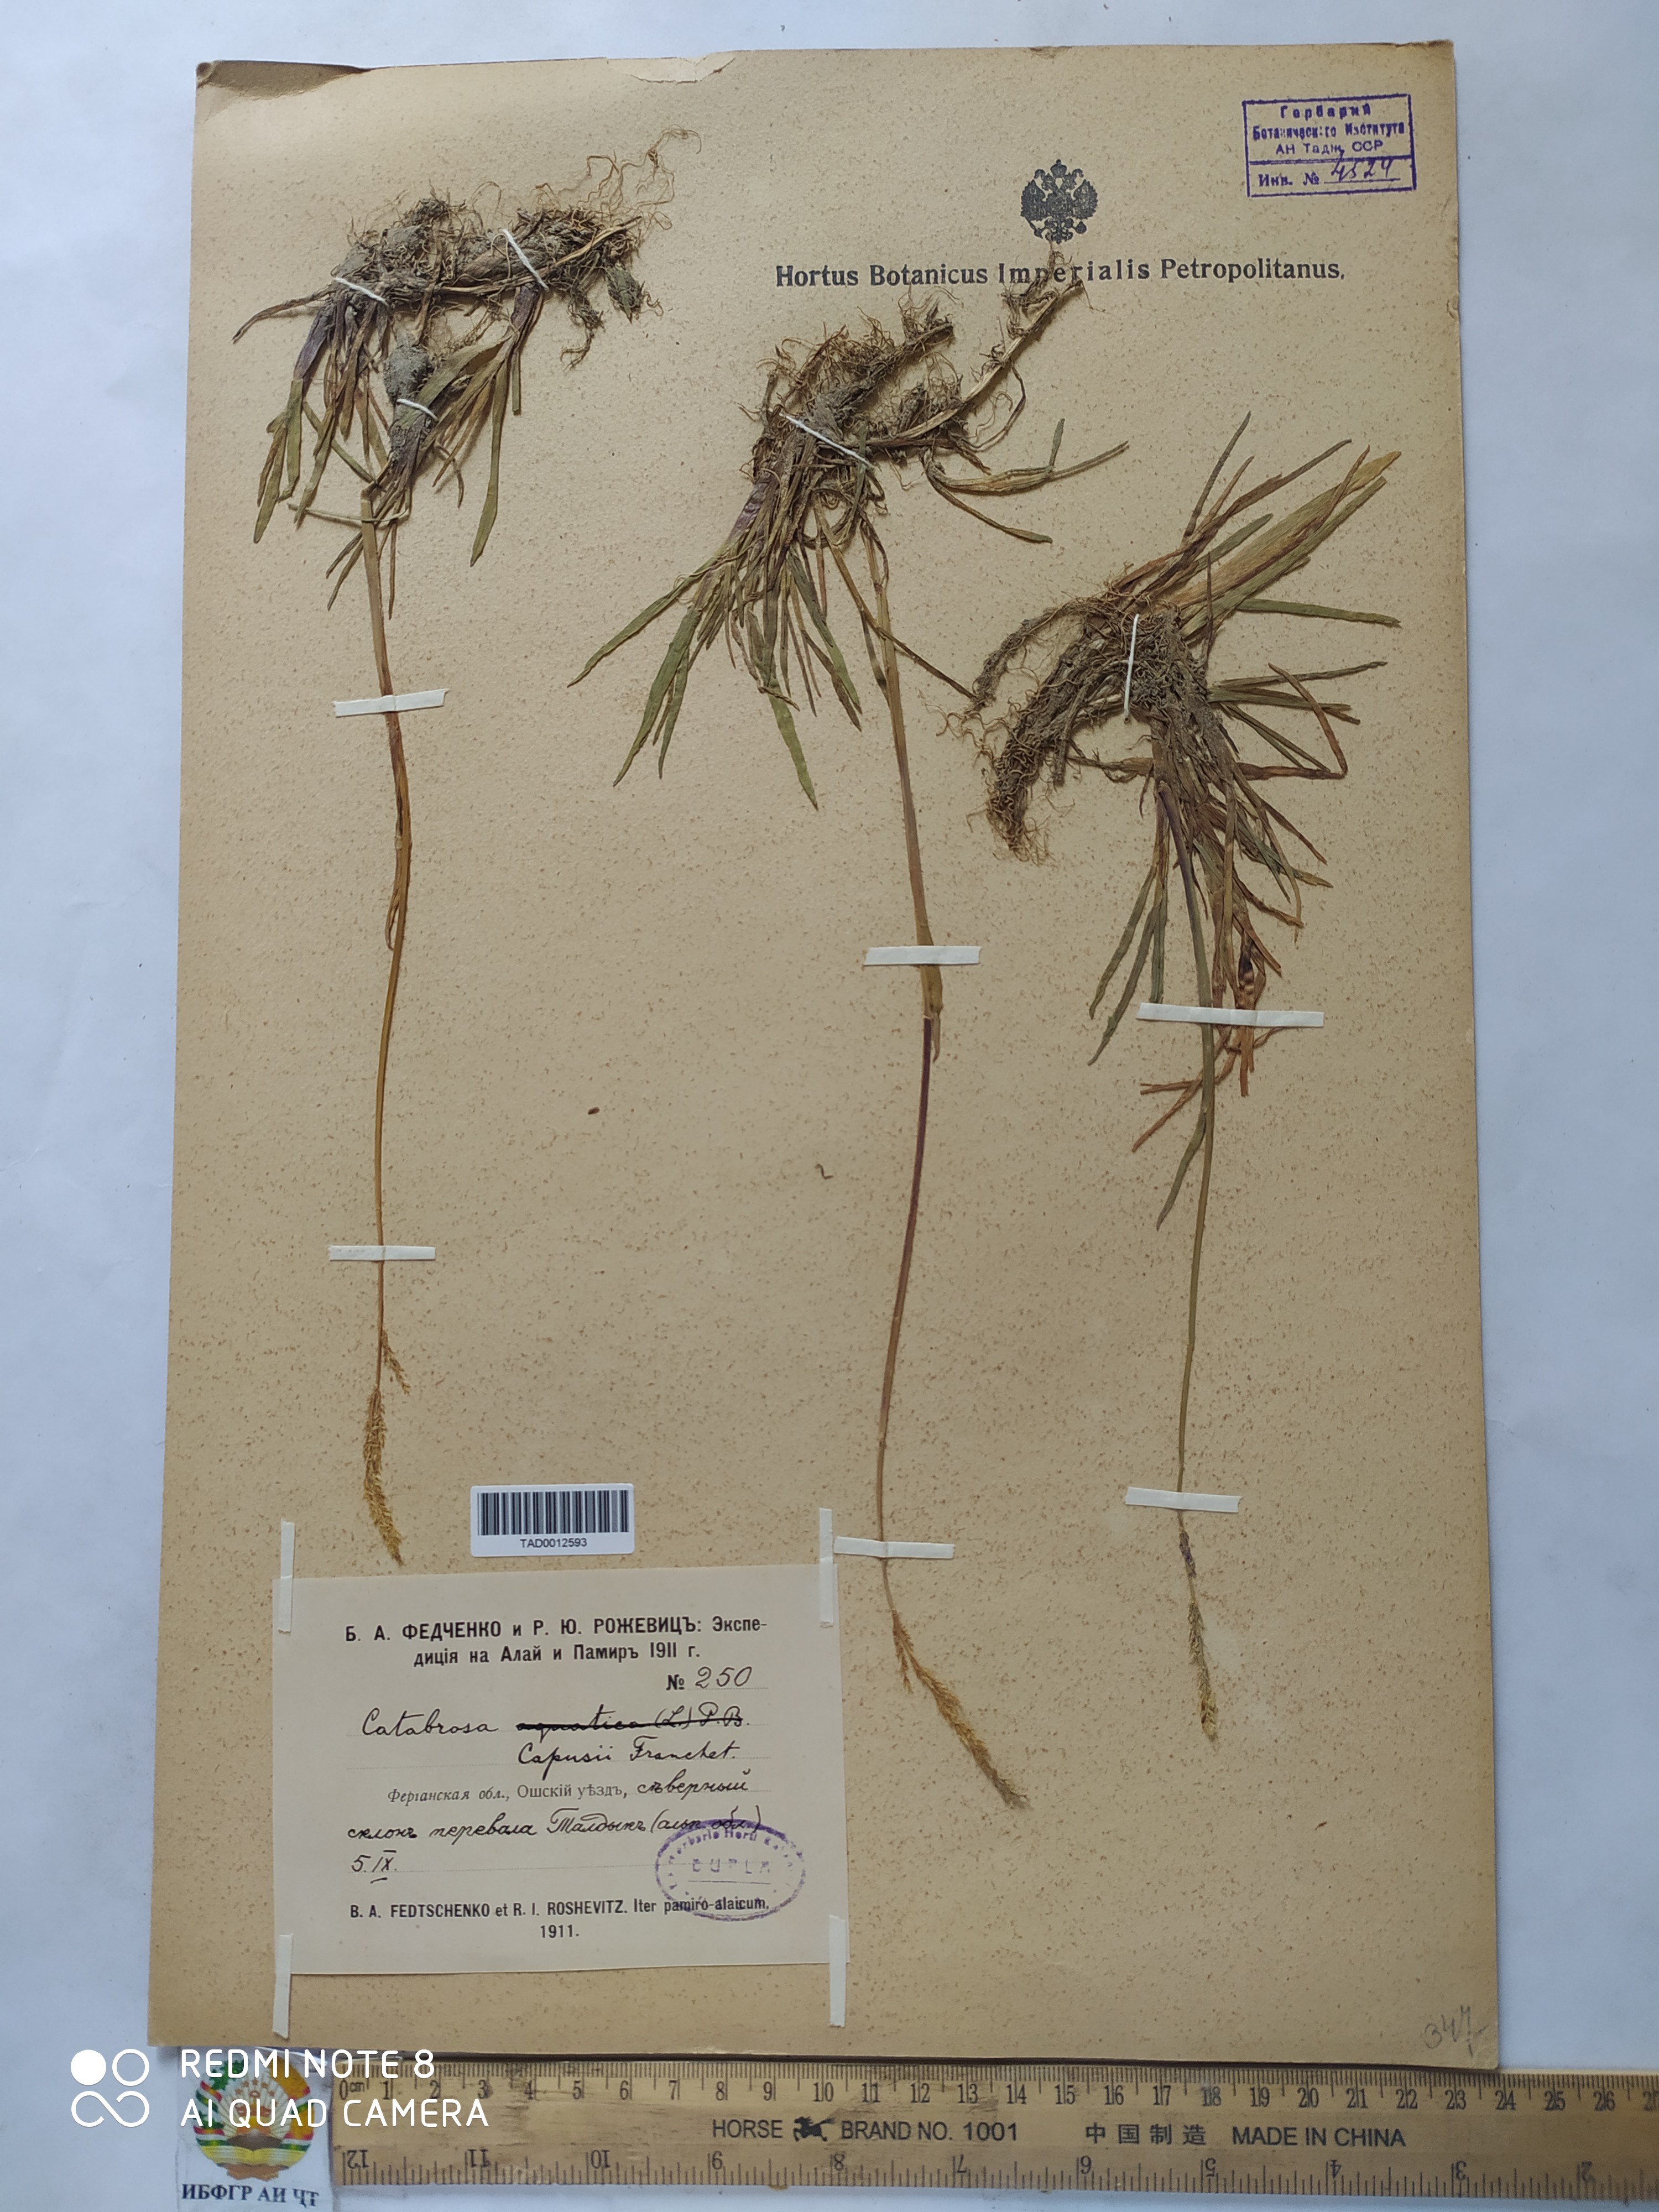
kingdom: Plantae
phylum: Tracheophyta
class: Liliopsida
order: Poales
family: Poaceae
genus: Catabrosa
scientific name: Catabrosa aquatica
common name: Whorl-grass
